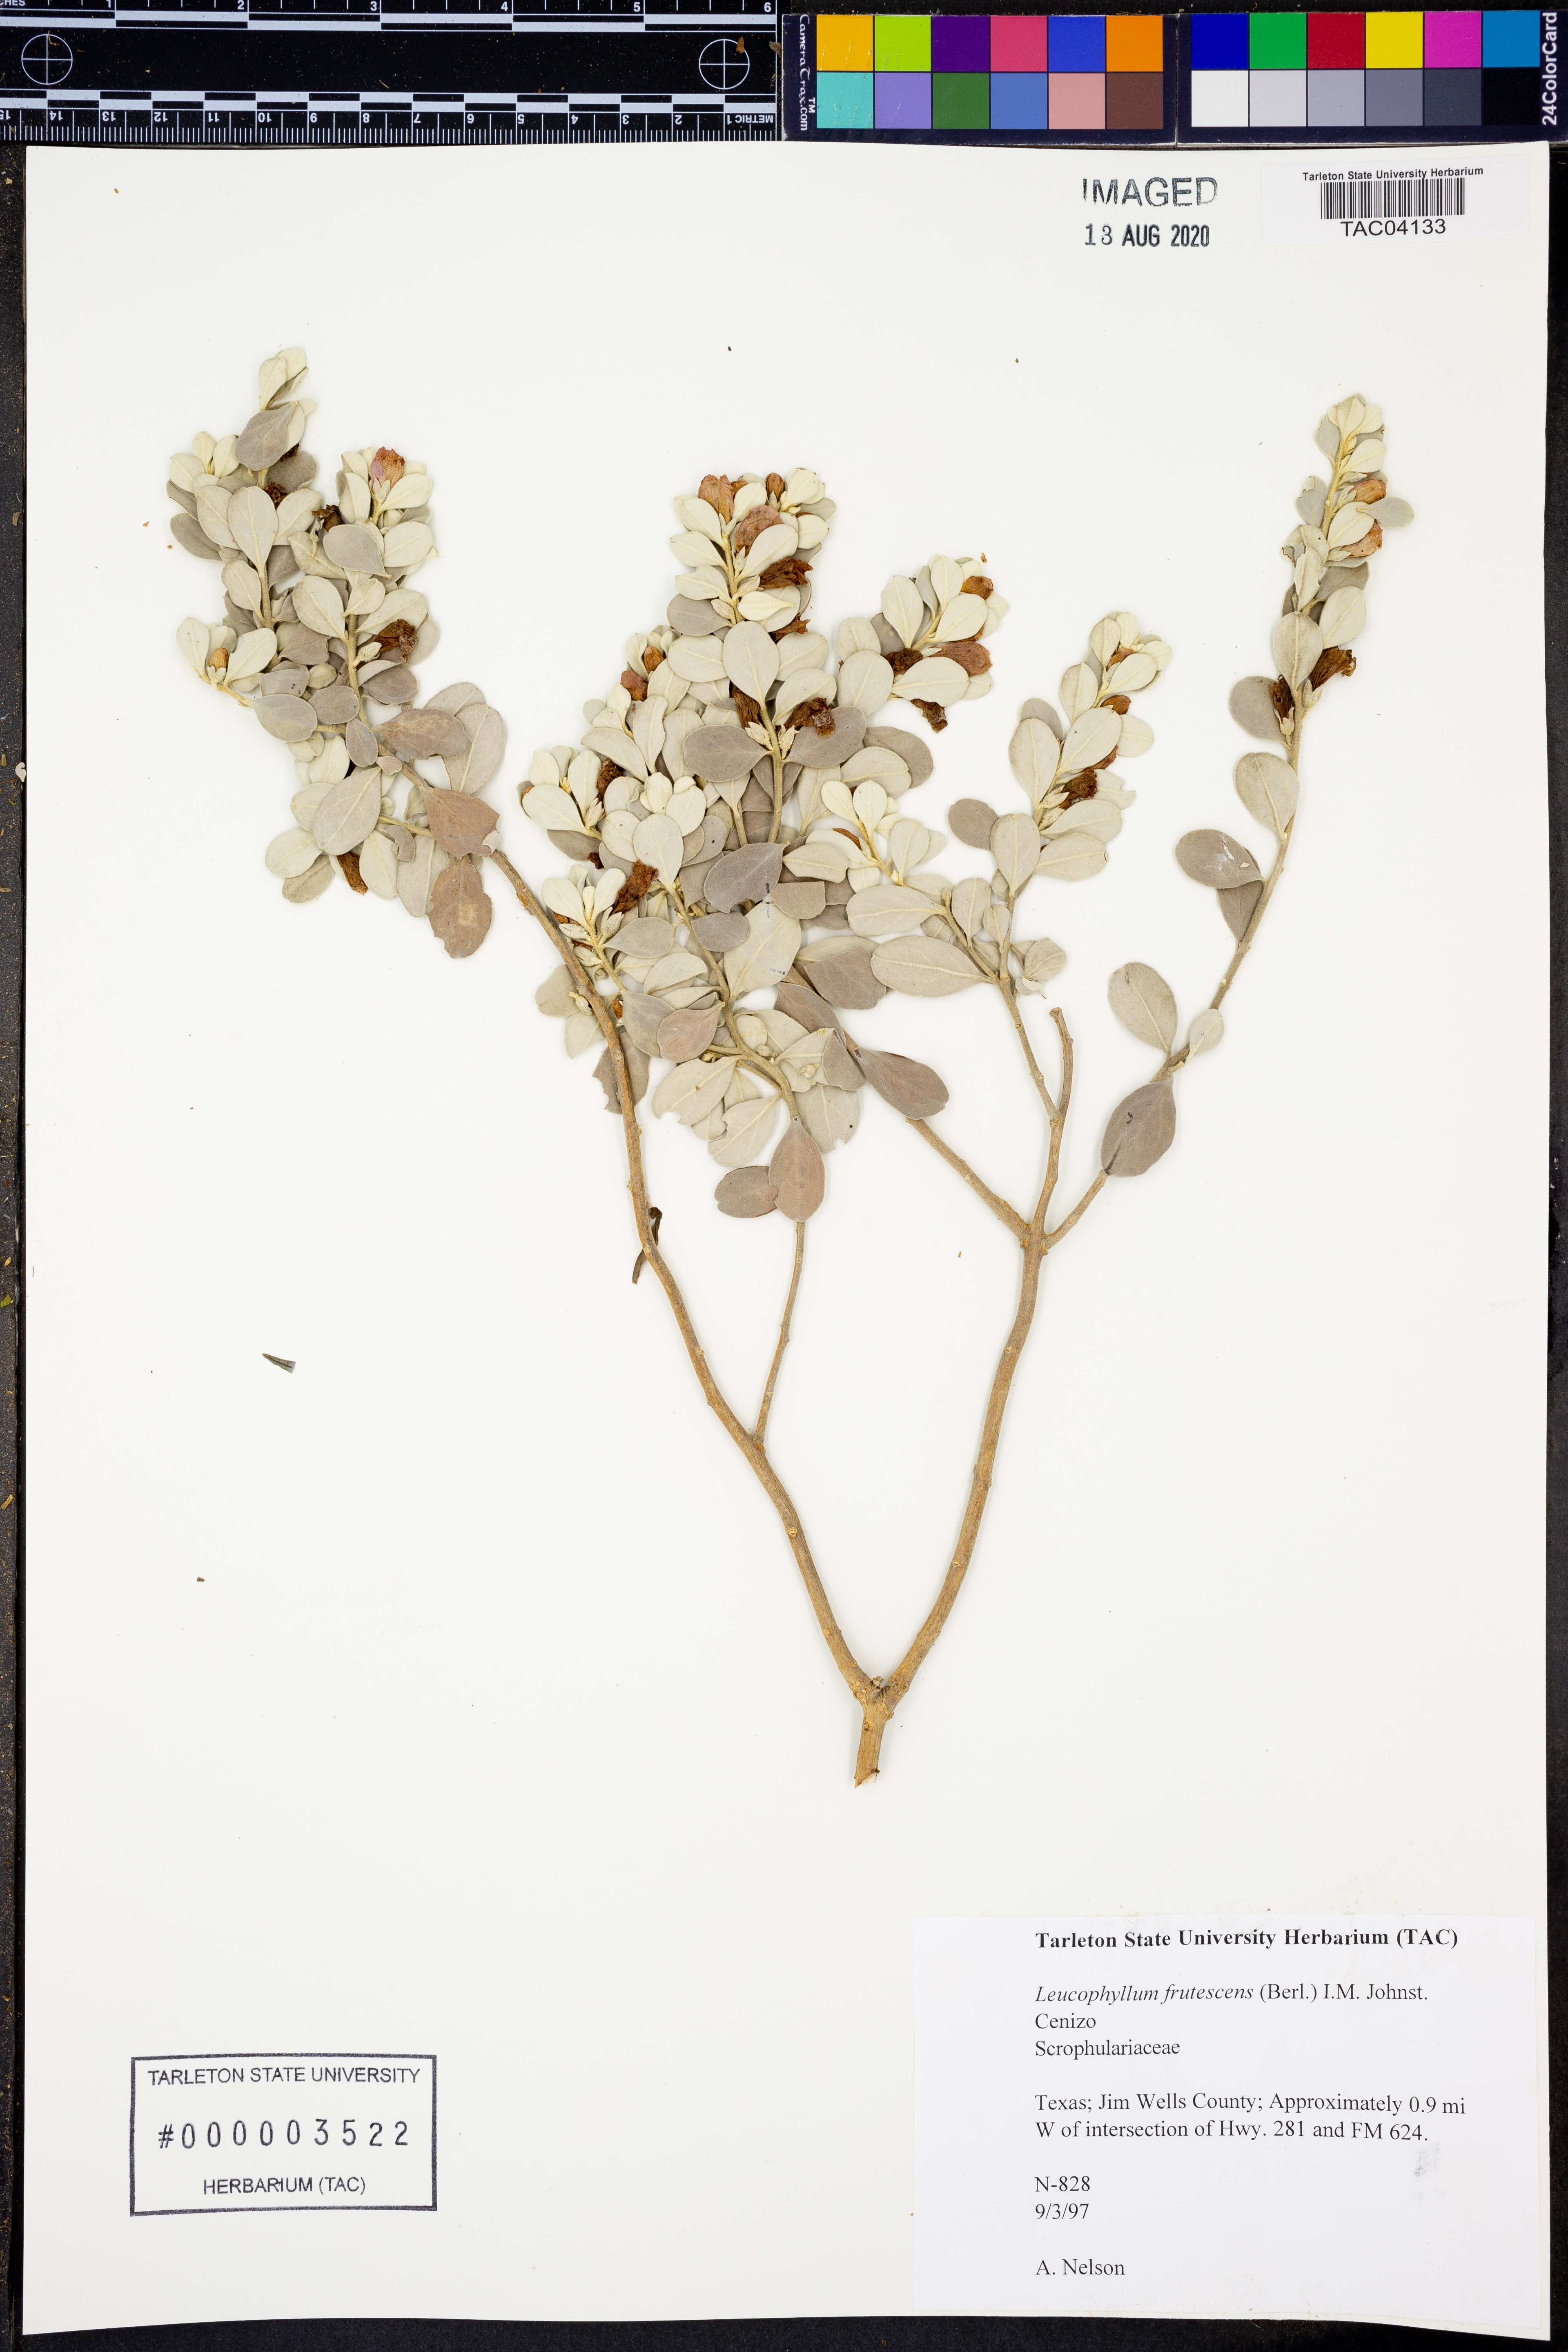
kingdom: Plantae
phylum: Tracheophyta
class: Magnoliopsida
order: Lamiales
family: Scrophulariaceae
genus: Leucophyllum
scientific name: Leucophyllum frutescens
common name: Texas silverleaf
